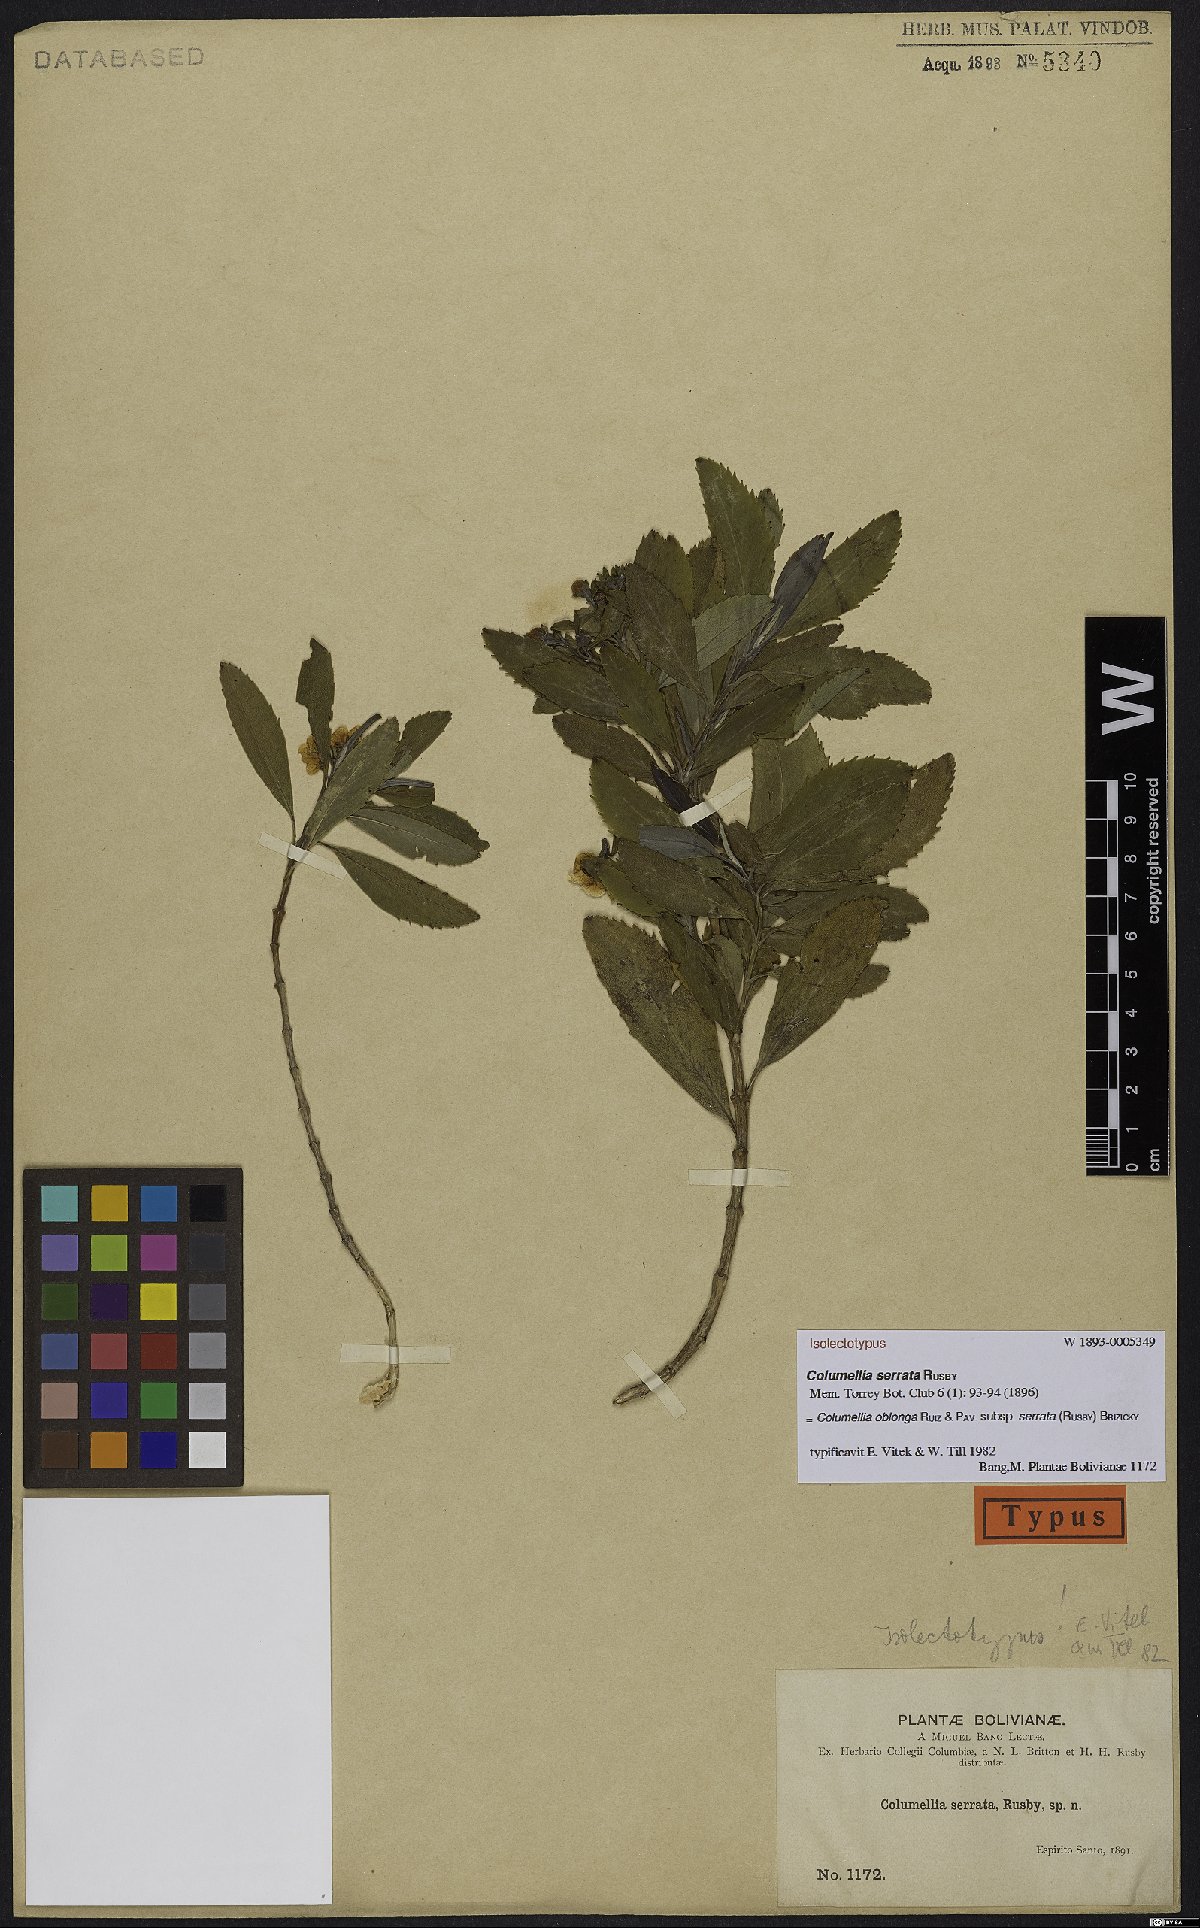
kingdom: Plantae
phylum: Tracheophyta
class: Magnoliopsida
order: Bruniales
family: Columelliaceae
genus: Columellia
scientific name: Columellia oblonga
